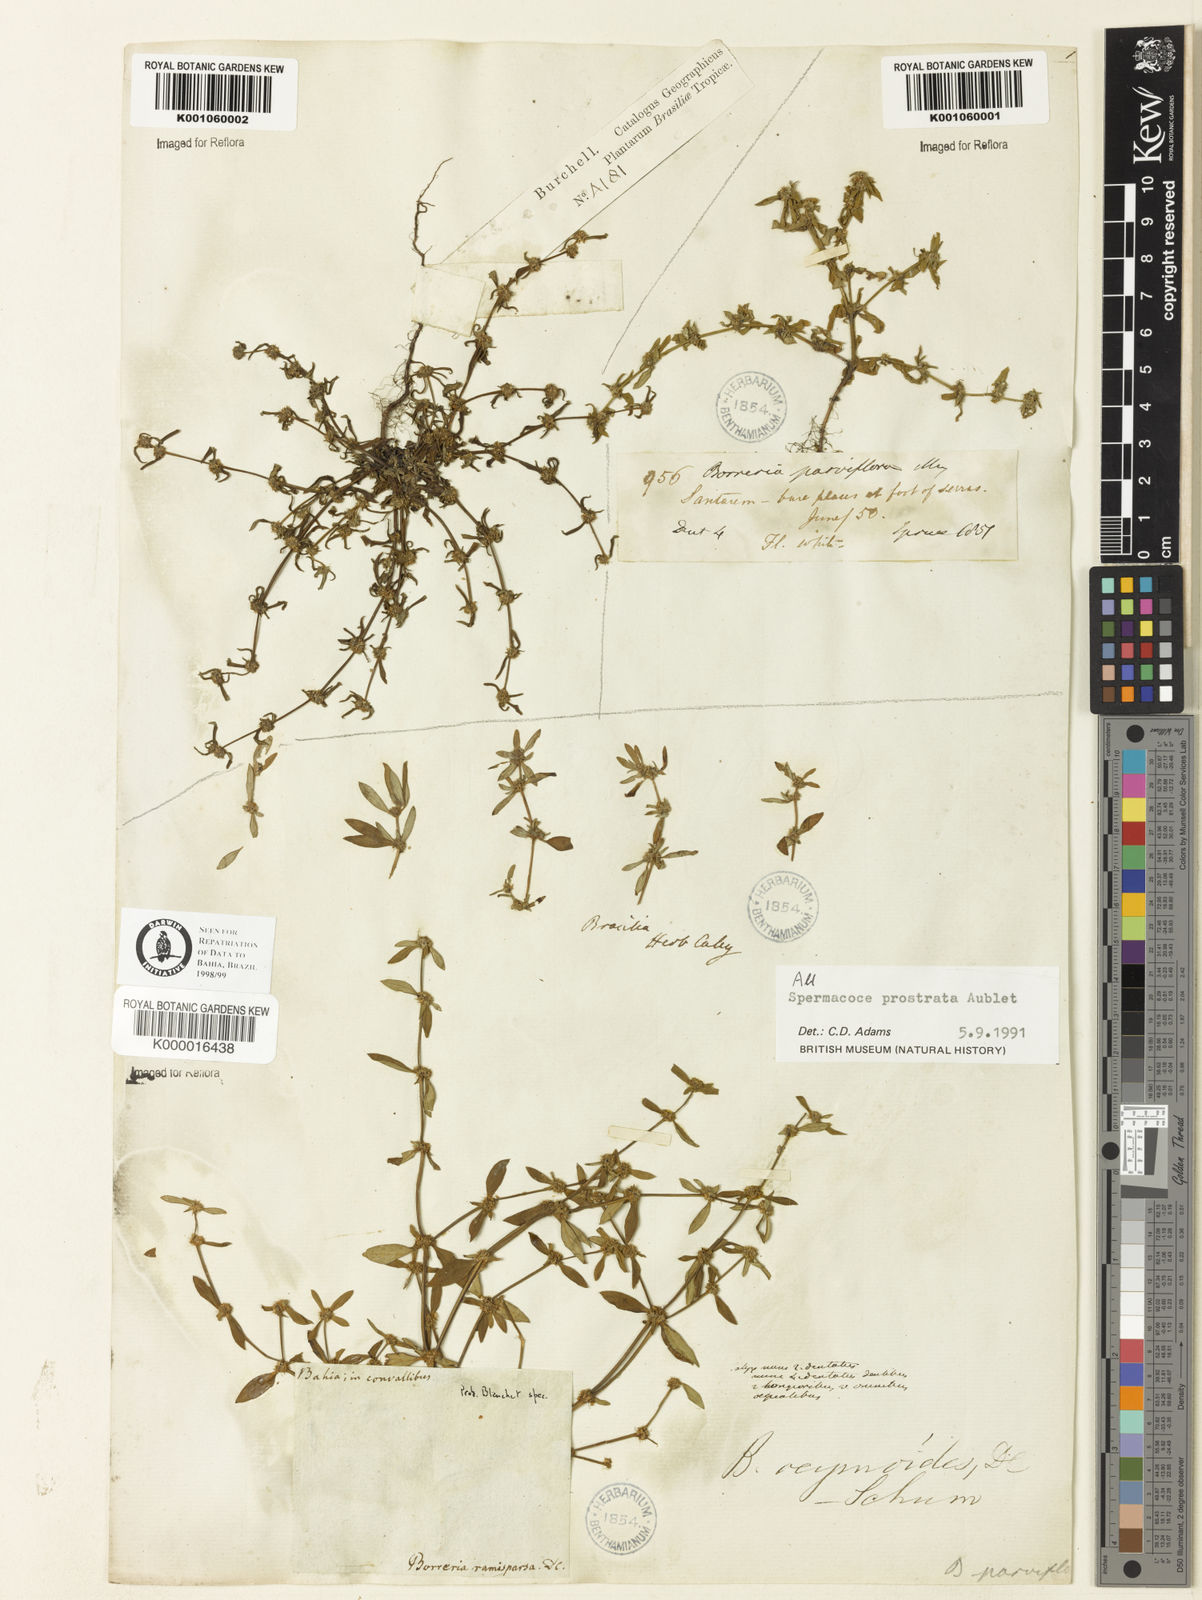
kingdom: Plantae
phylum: Tracheophyta
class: Magnoliopsida
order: Gentianales
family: Rubiaceae
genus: Spermacoce
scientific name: Spermacoce
